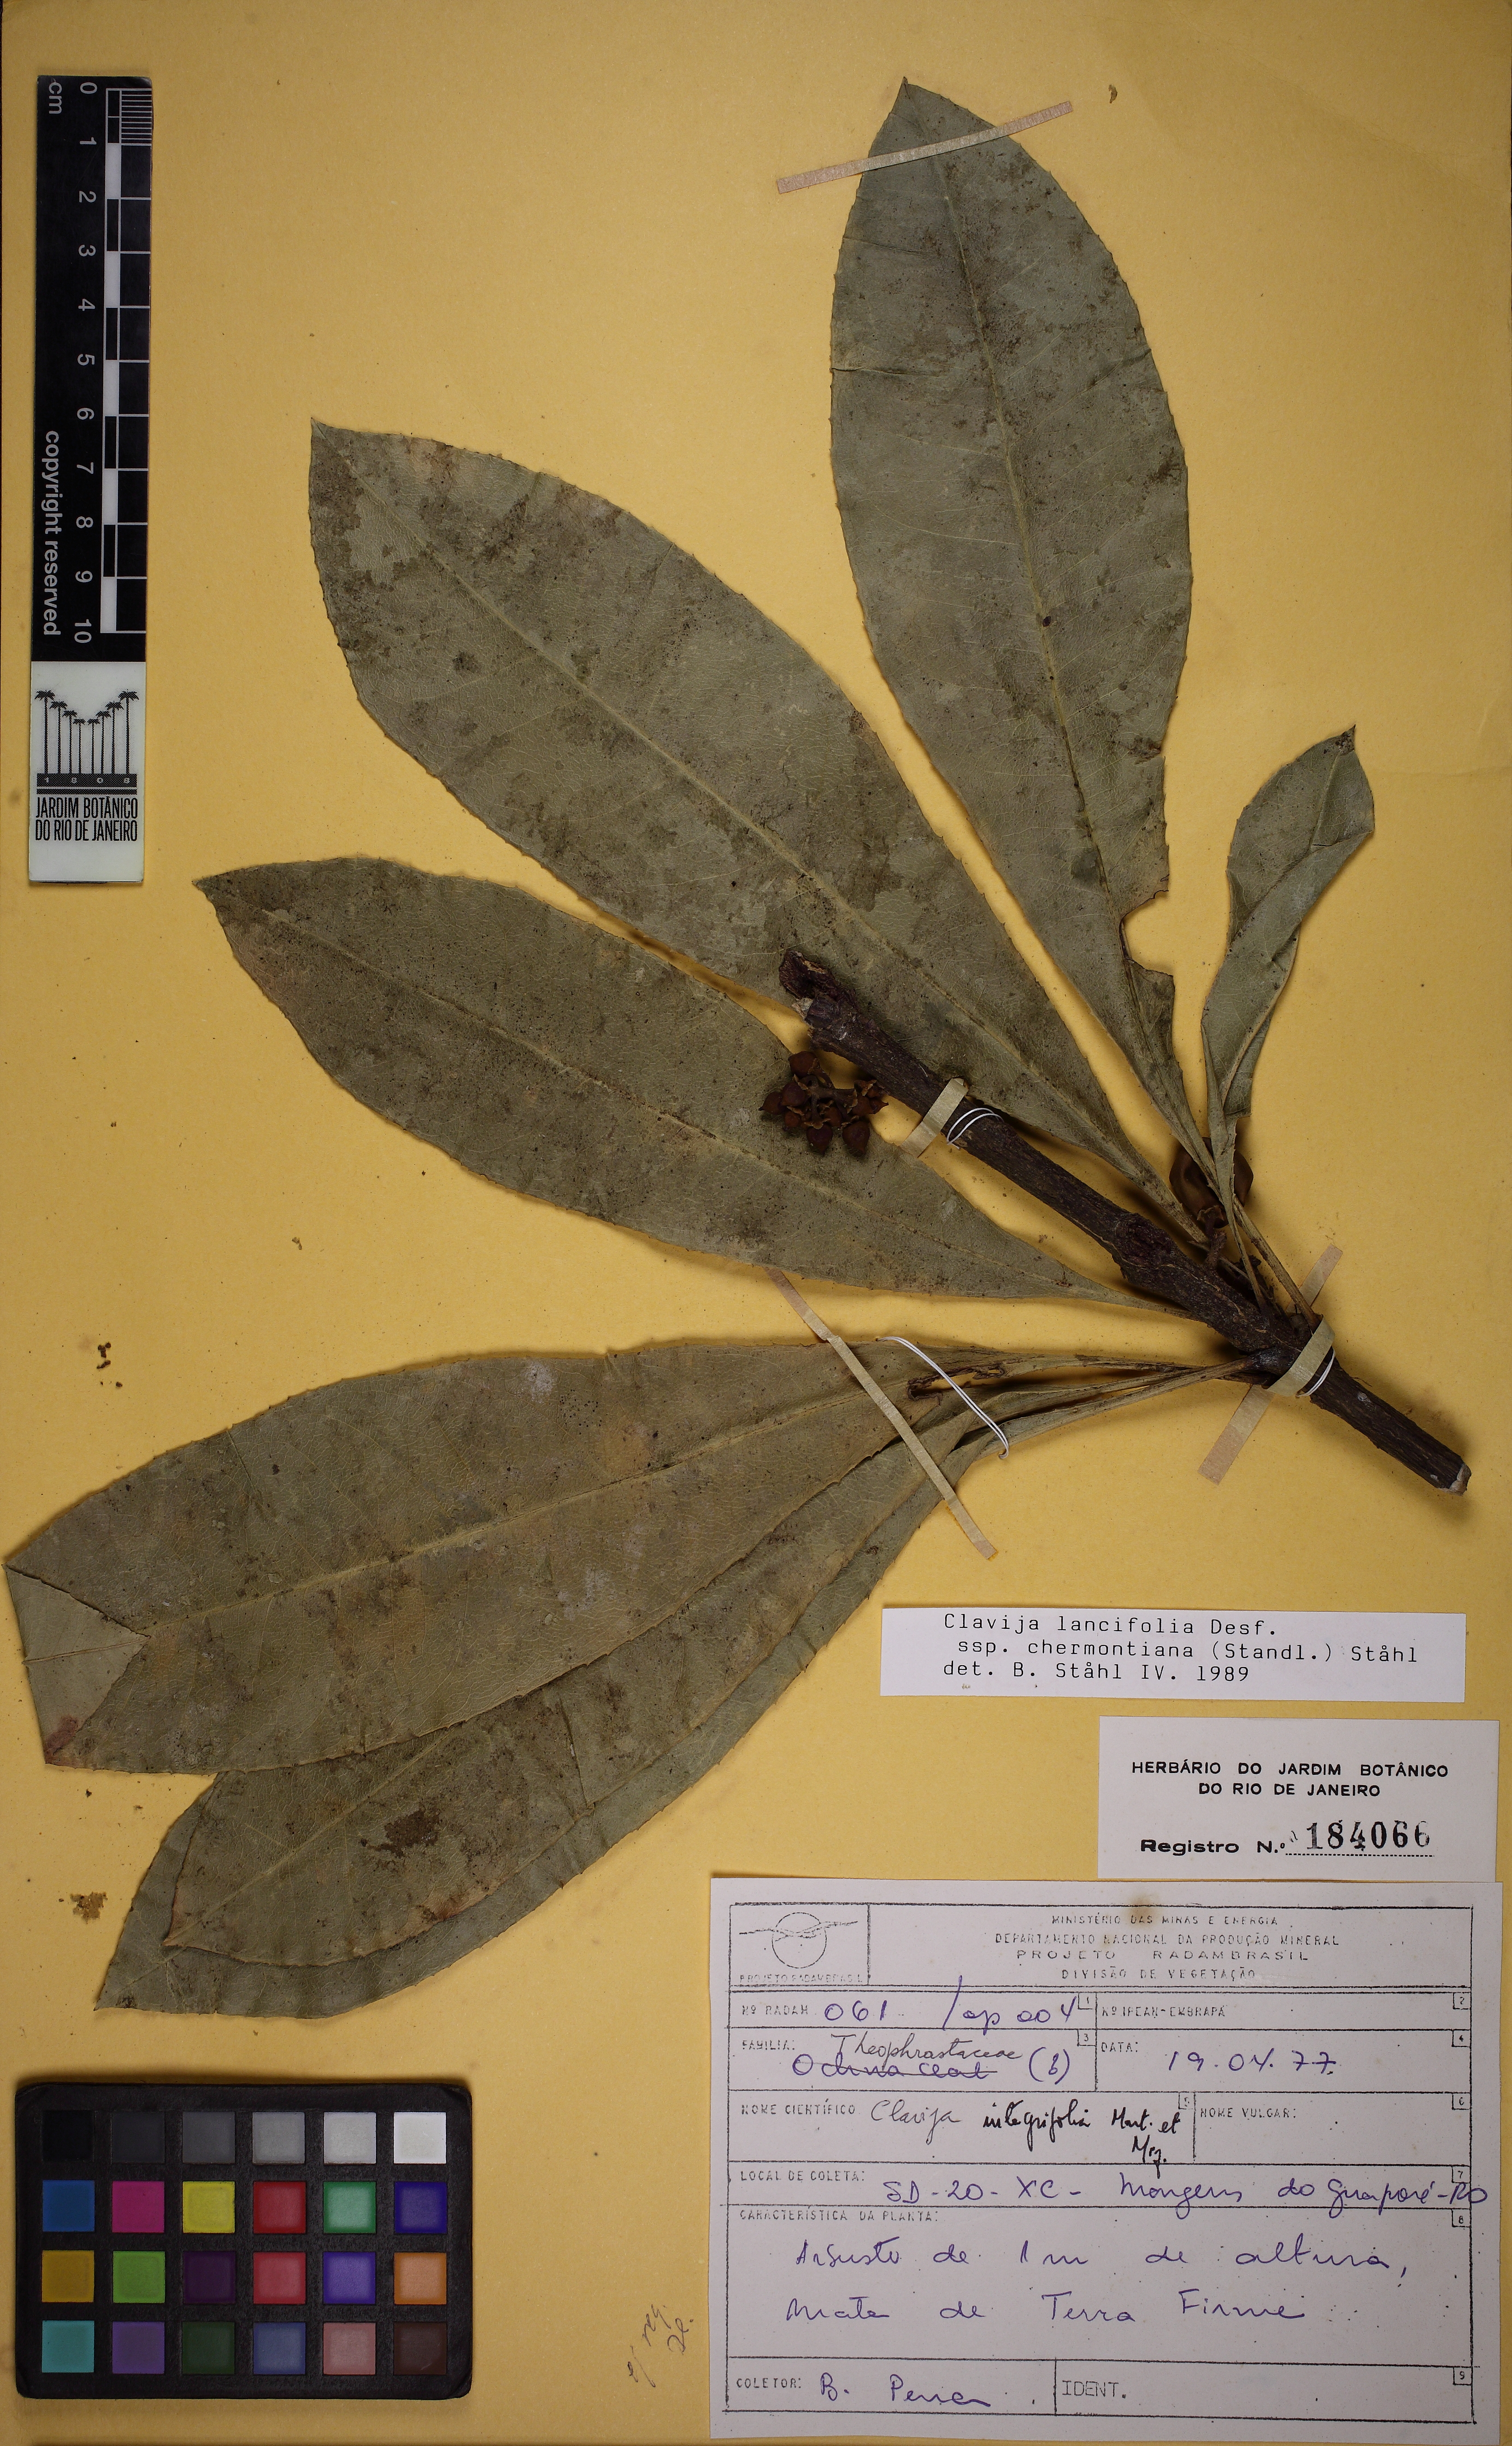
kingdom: Plantae
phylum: Tracheophyta
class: Magnoliopsida
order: Ericales
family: Primulaceae
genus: Clavija
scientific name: Clavija lancifolia
